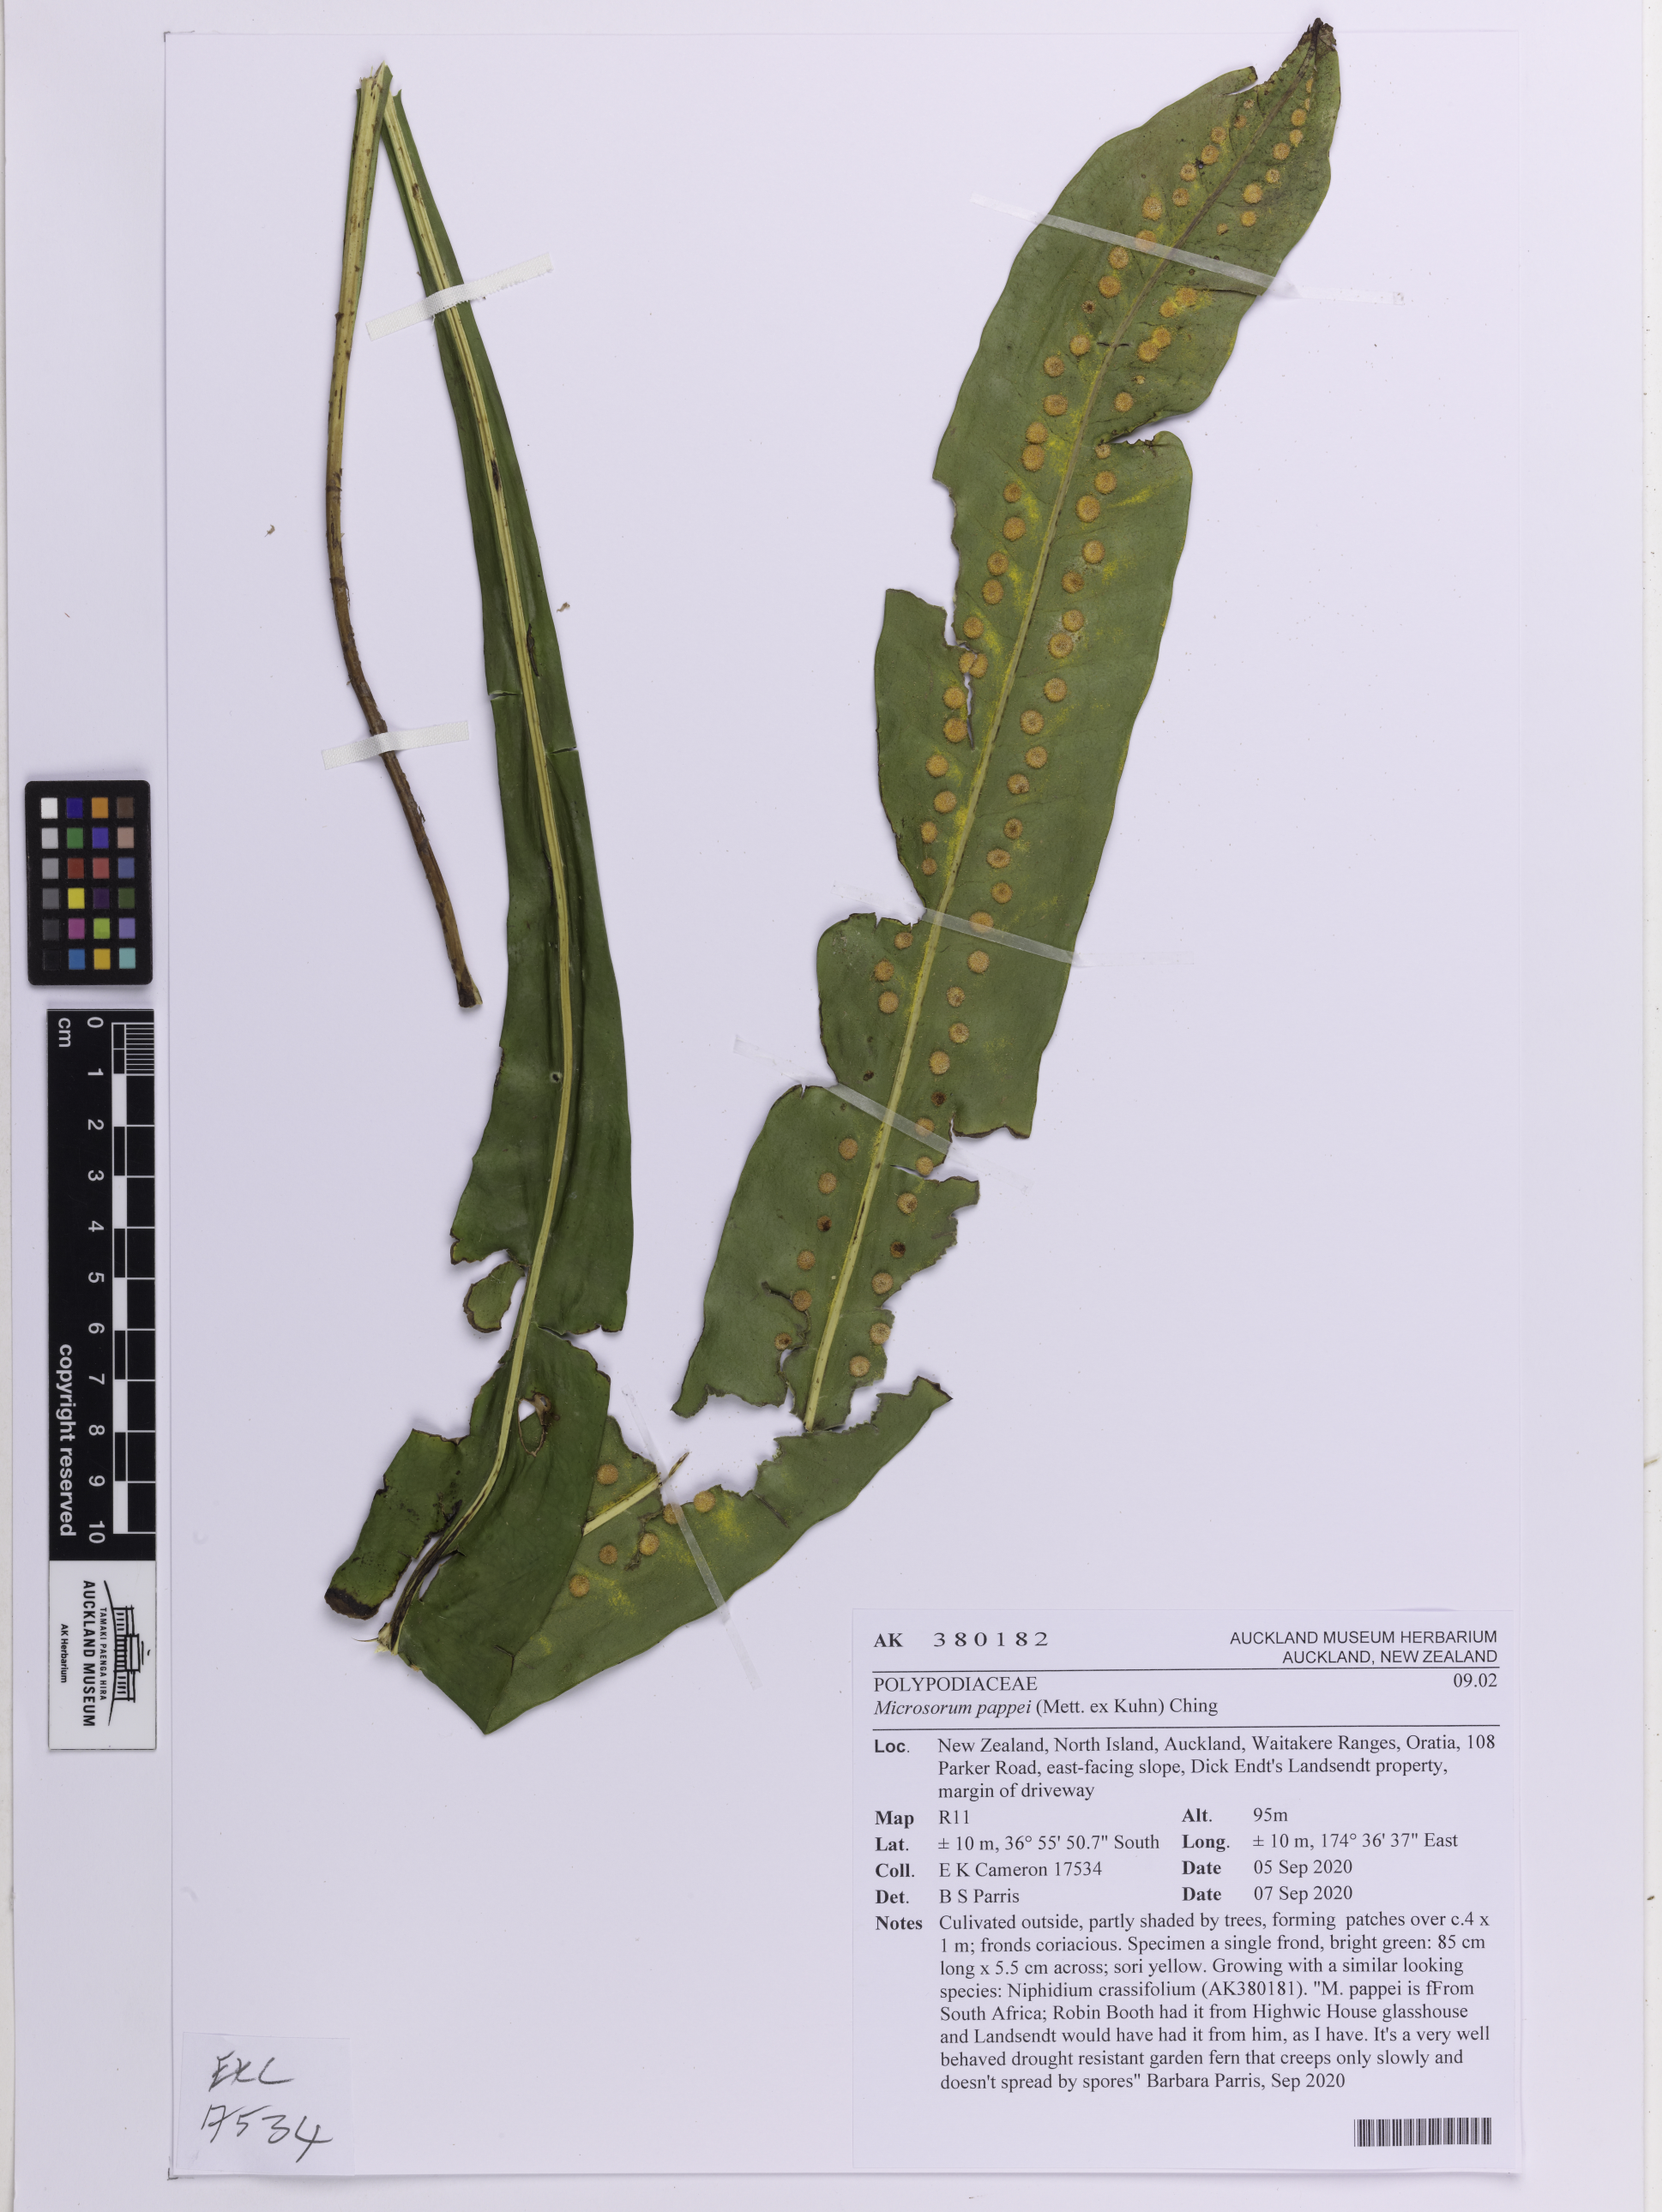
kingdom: Plantae
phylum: Tracheophyta
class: Polypodiopsida
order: Polypodiales
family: Polypodiaceae
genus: Microsorum
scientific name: Microsorum pappei
